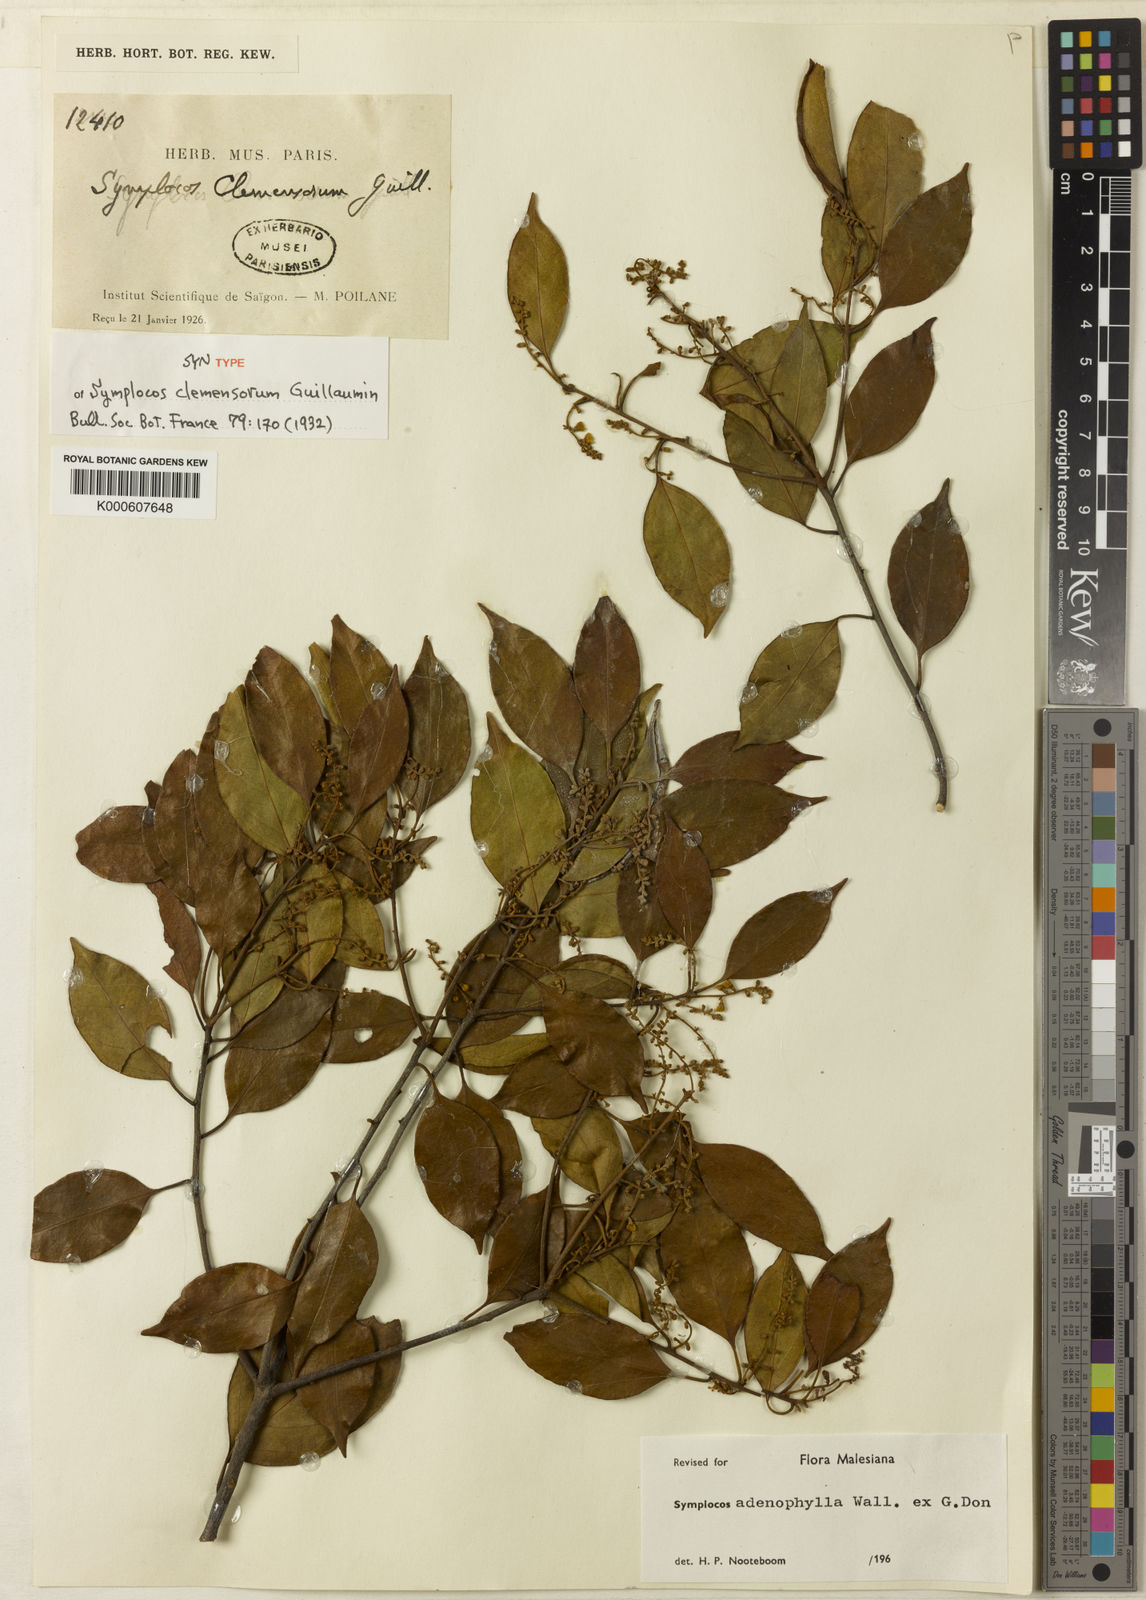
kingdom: Plantae
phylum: Tracheophyta
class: Magnoliopsida
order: Ericales
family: Symplocaceae
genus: Symplocos
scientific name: Symplocos adenophylla
